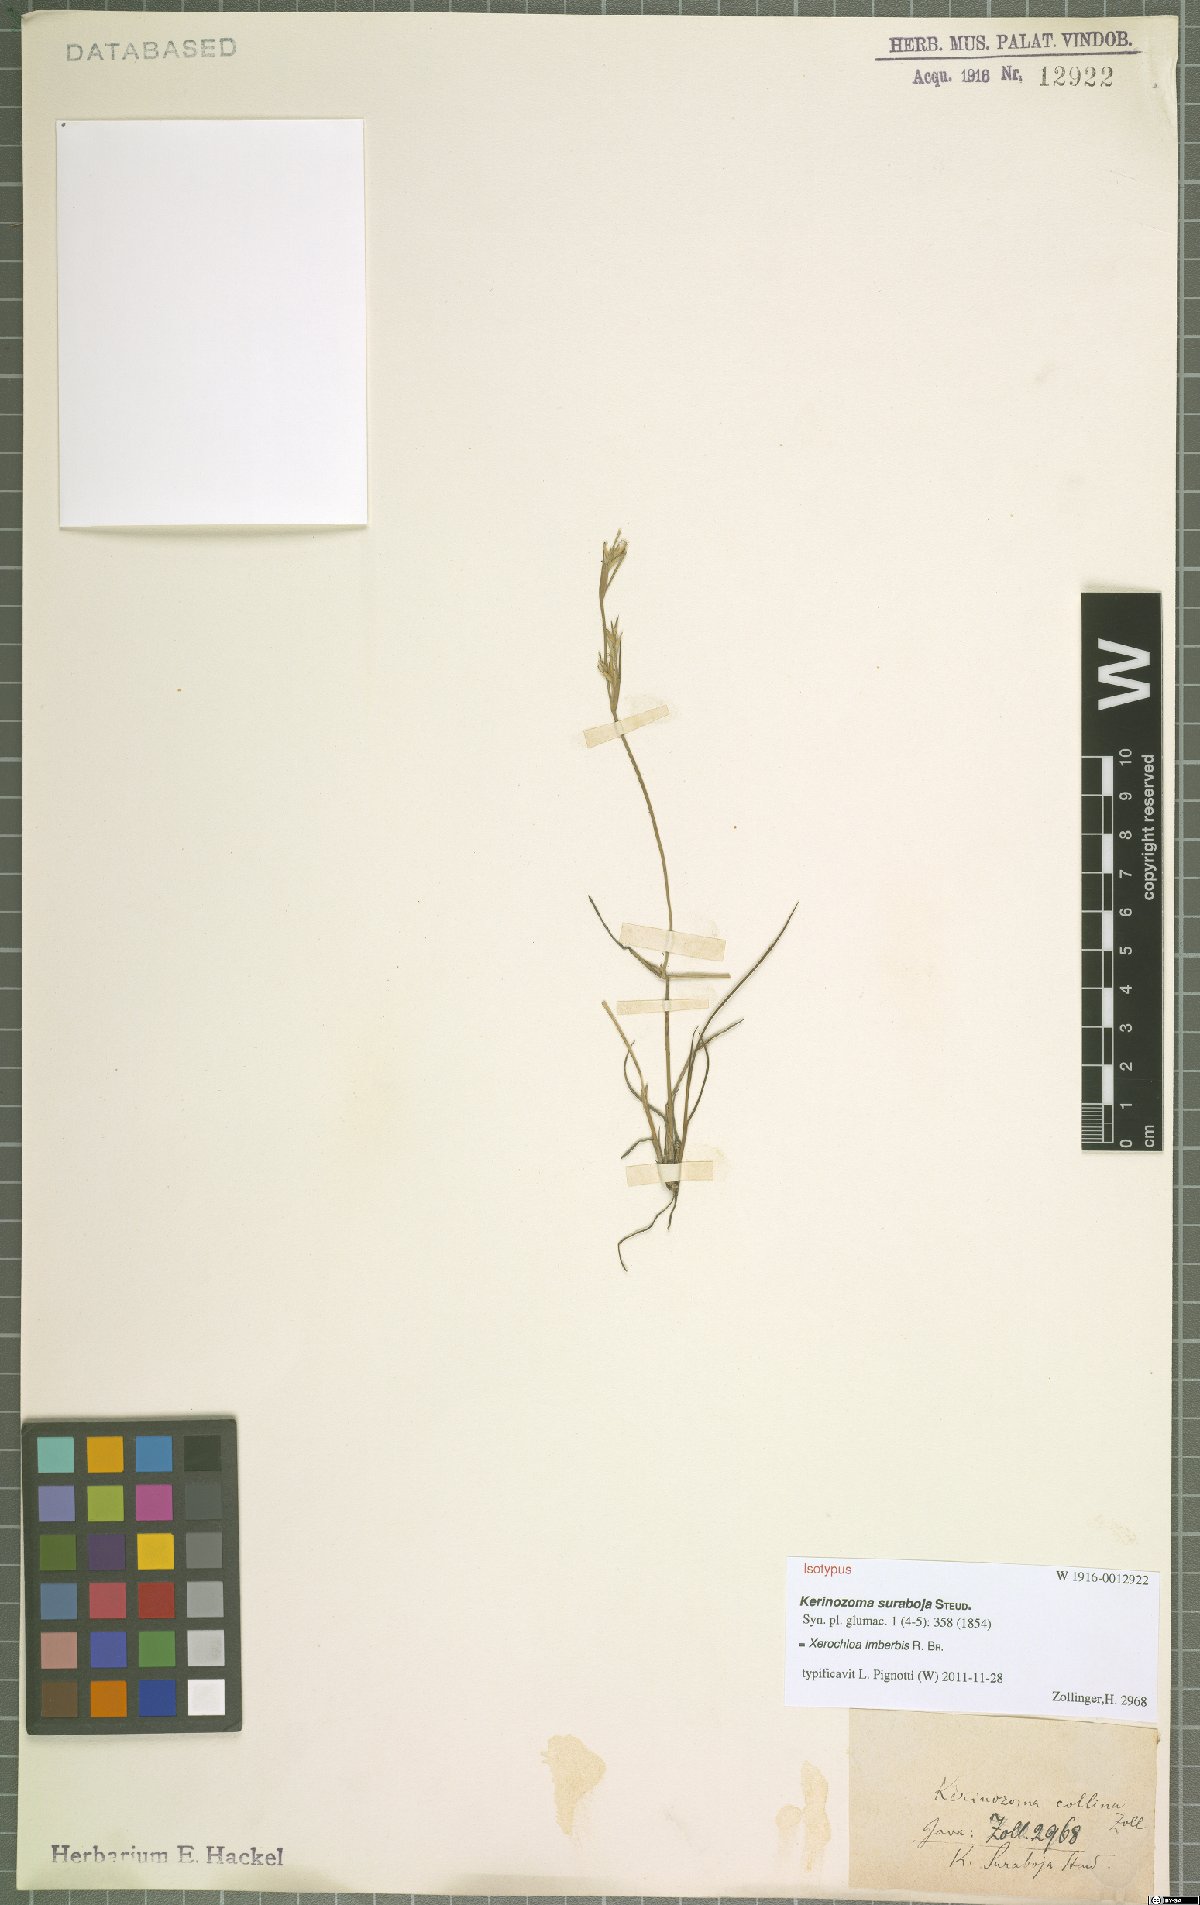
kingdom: Plantae
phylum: Tracheophyta
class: Liliopsida
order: Poales
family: Poaceae
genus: Xerochloa
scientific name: Xerochloa imberbis
